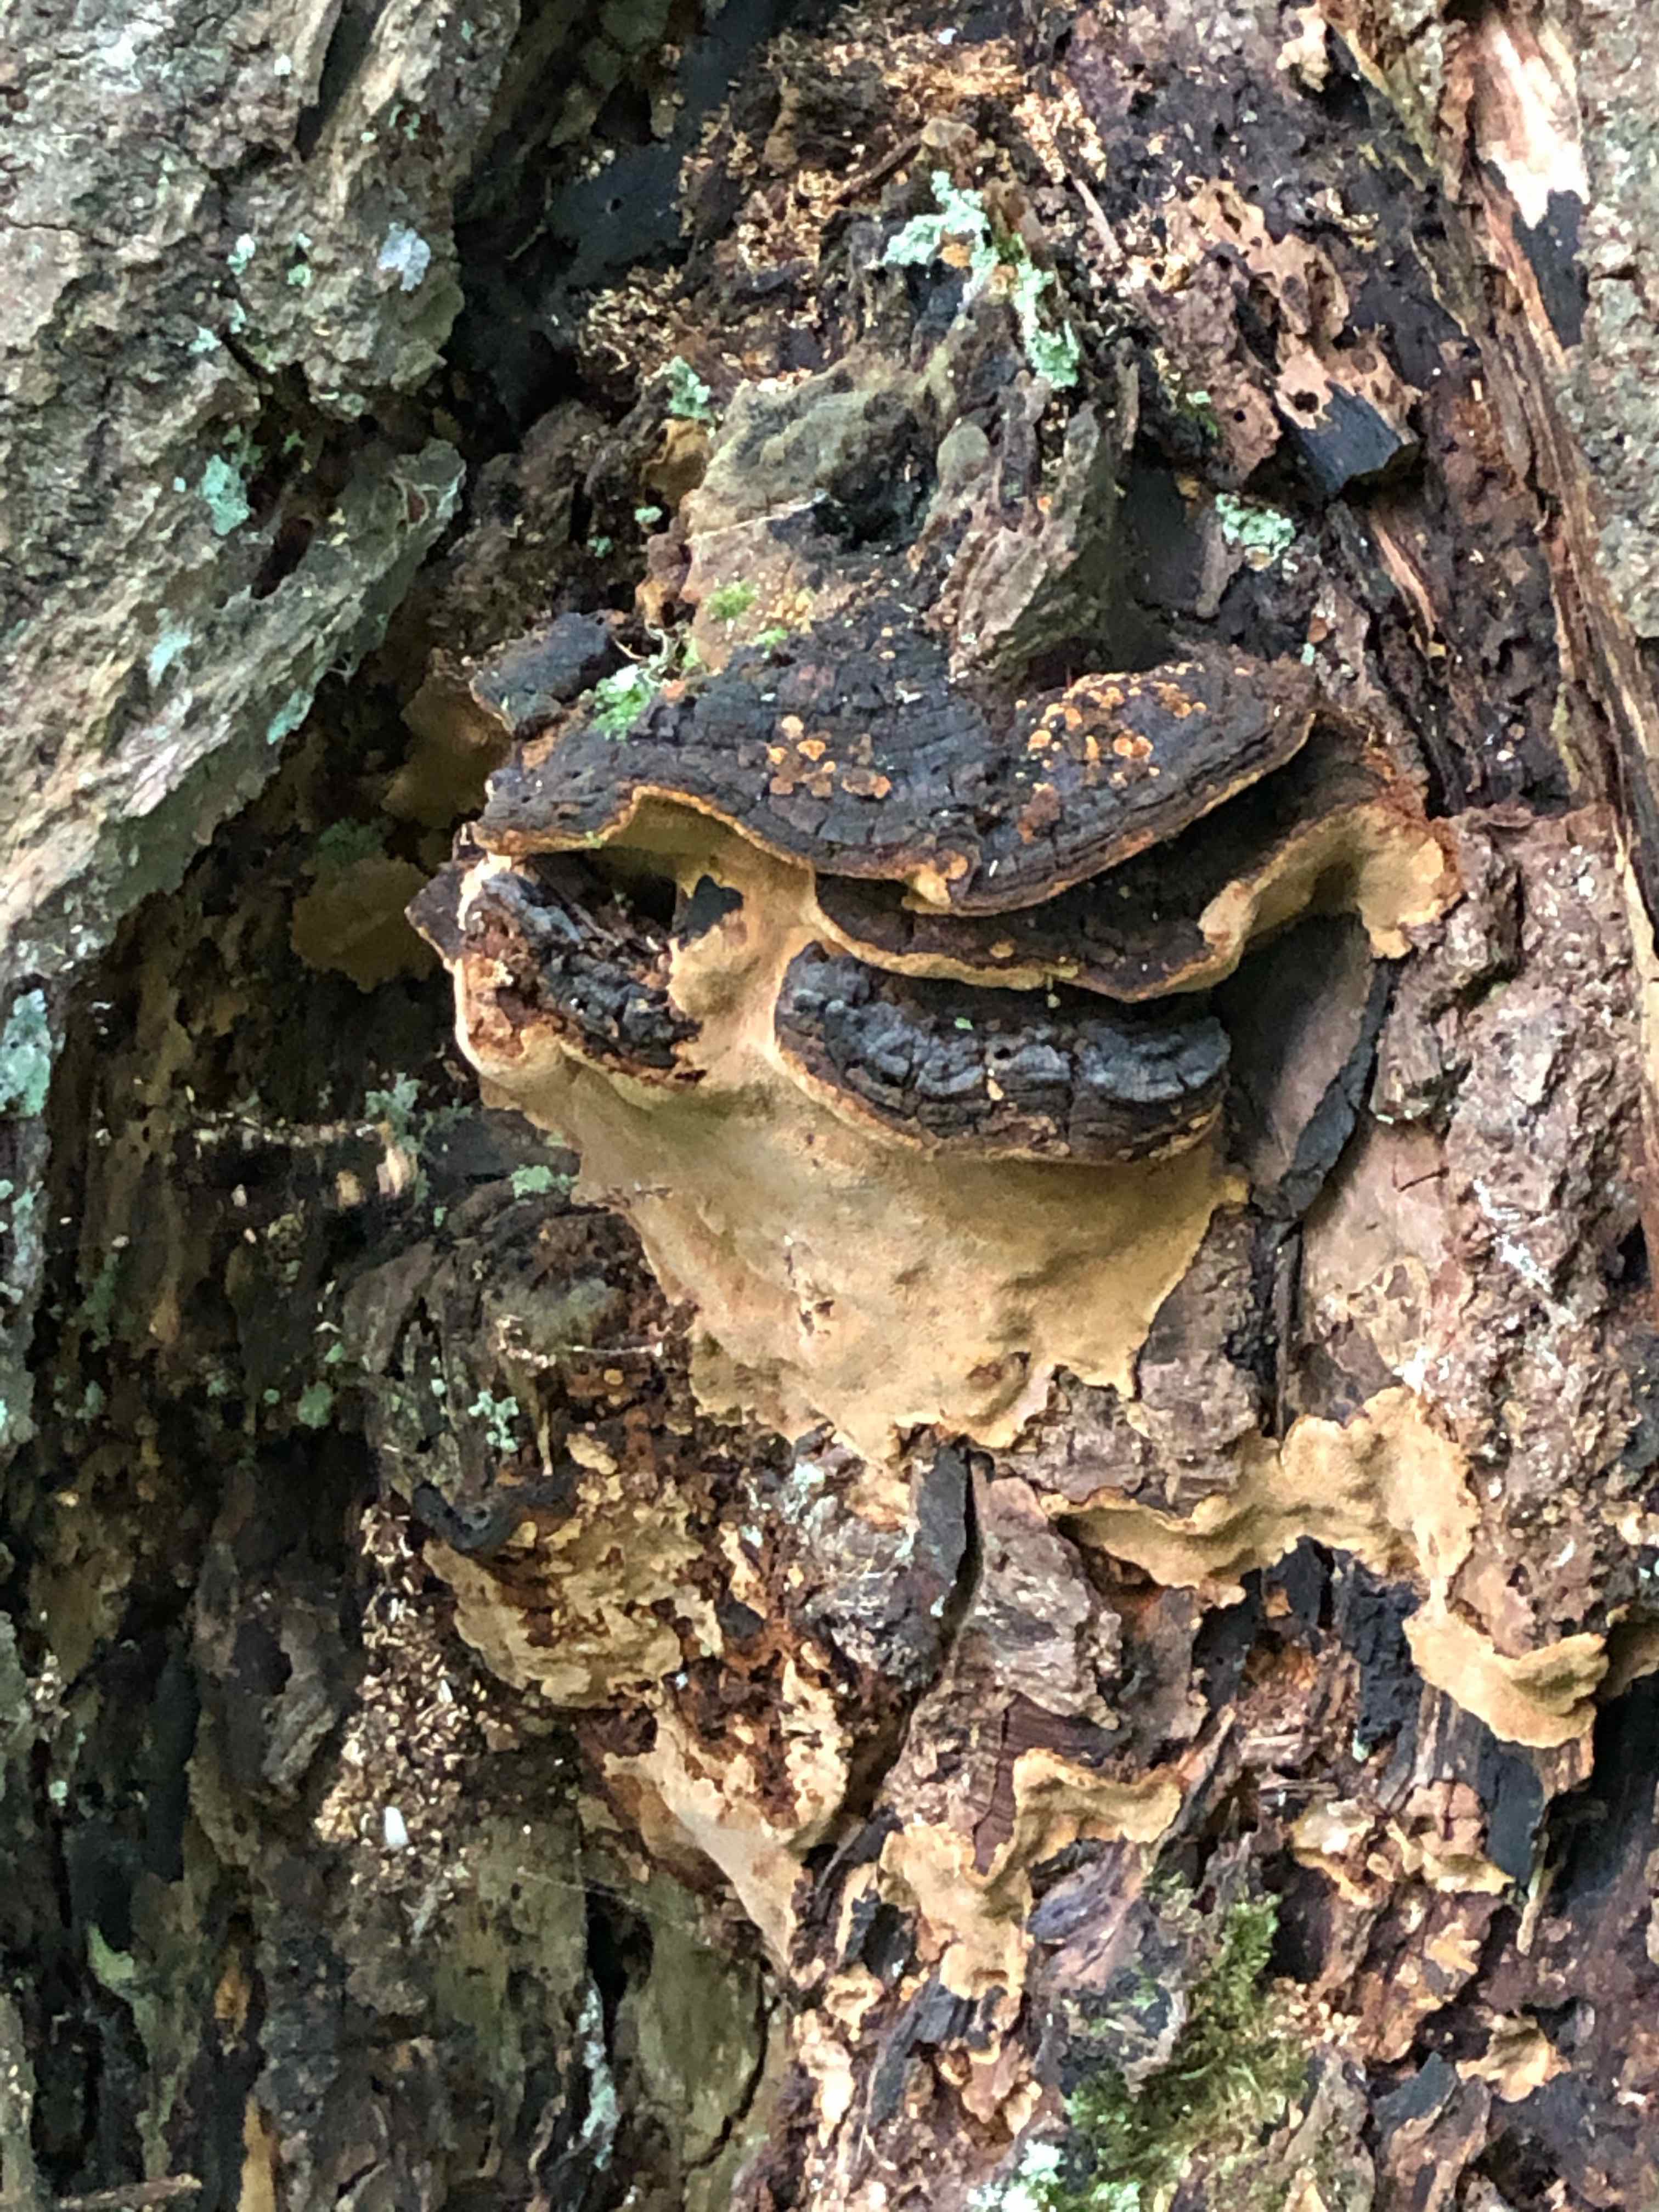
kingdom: Fungi
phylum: Basidiomycota
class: Agaricomycetes
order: Hymenochaetales
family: Hymenochaetaceae
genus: Phellinopsis
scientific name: Phellinopsis conchata
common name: pile-ildporesvamp
